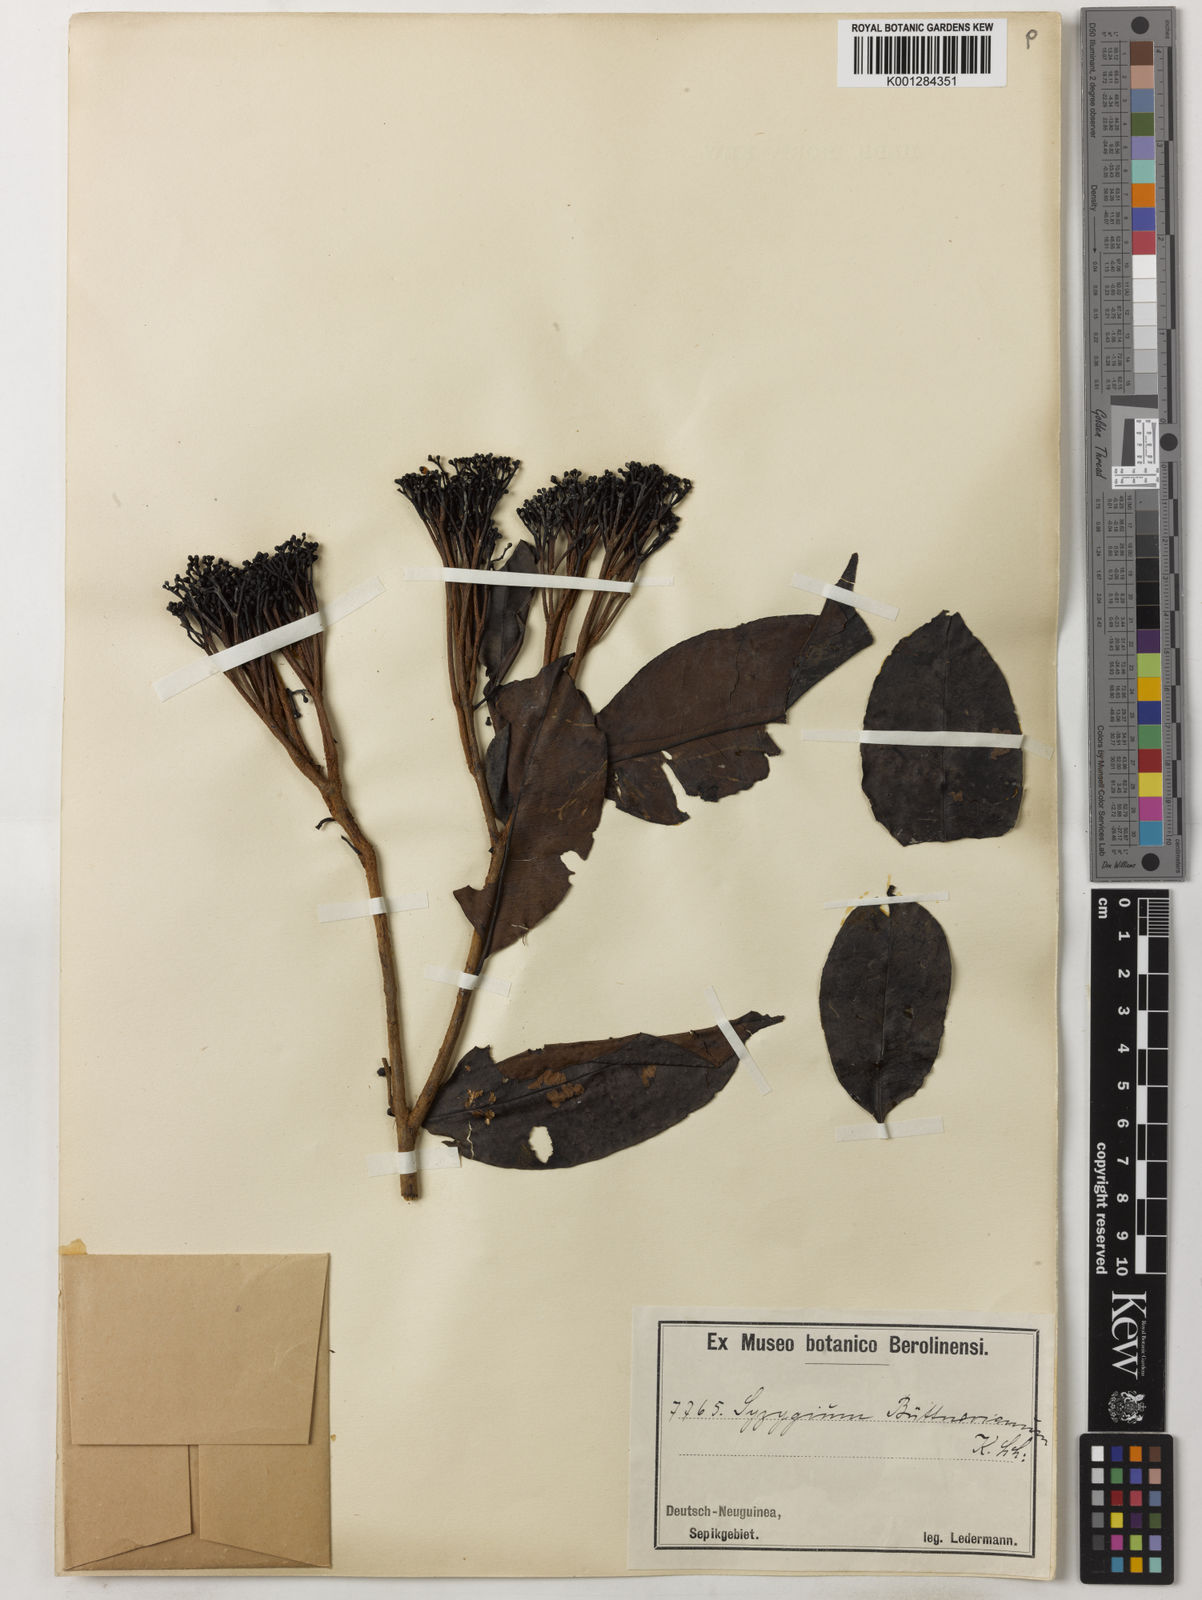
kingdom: Plantae
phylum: Tracheophyta
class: Magnoliopsida
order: Myrtales
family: Myrtaceae
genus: Syzygium
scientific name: Syzygium buettnerianum
